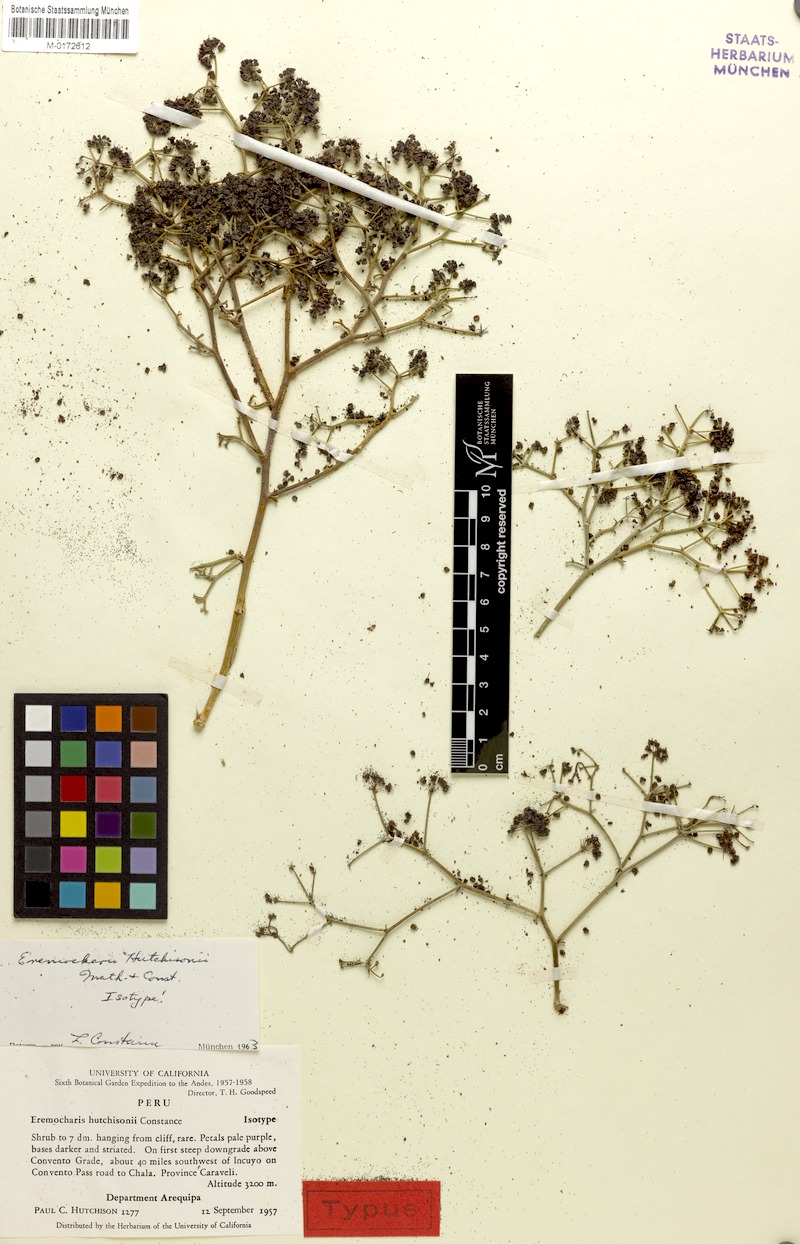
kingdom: Plantae
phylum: Tracheophyta
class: Magnoliopsida
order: Apiales
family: Apiaceae
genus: Eremocharis
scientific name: Eremocharis hutchisonii
